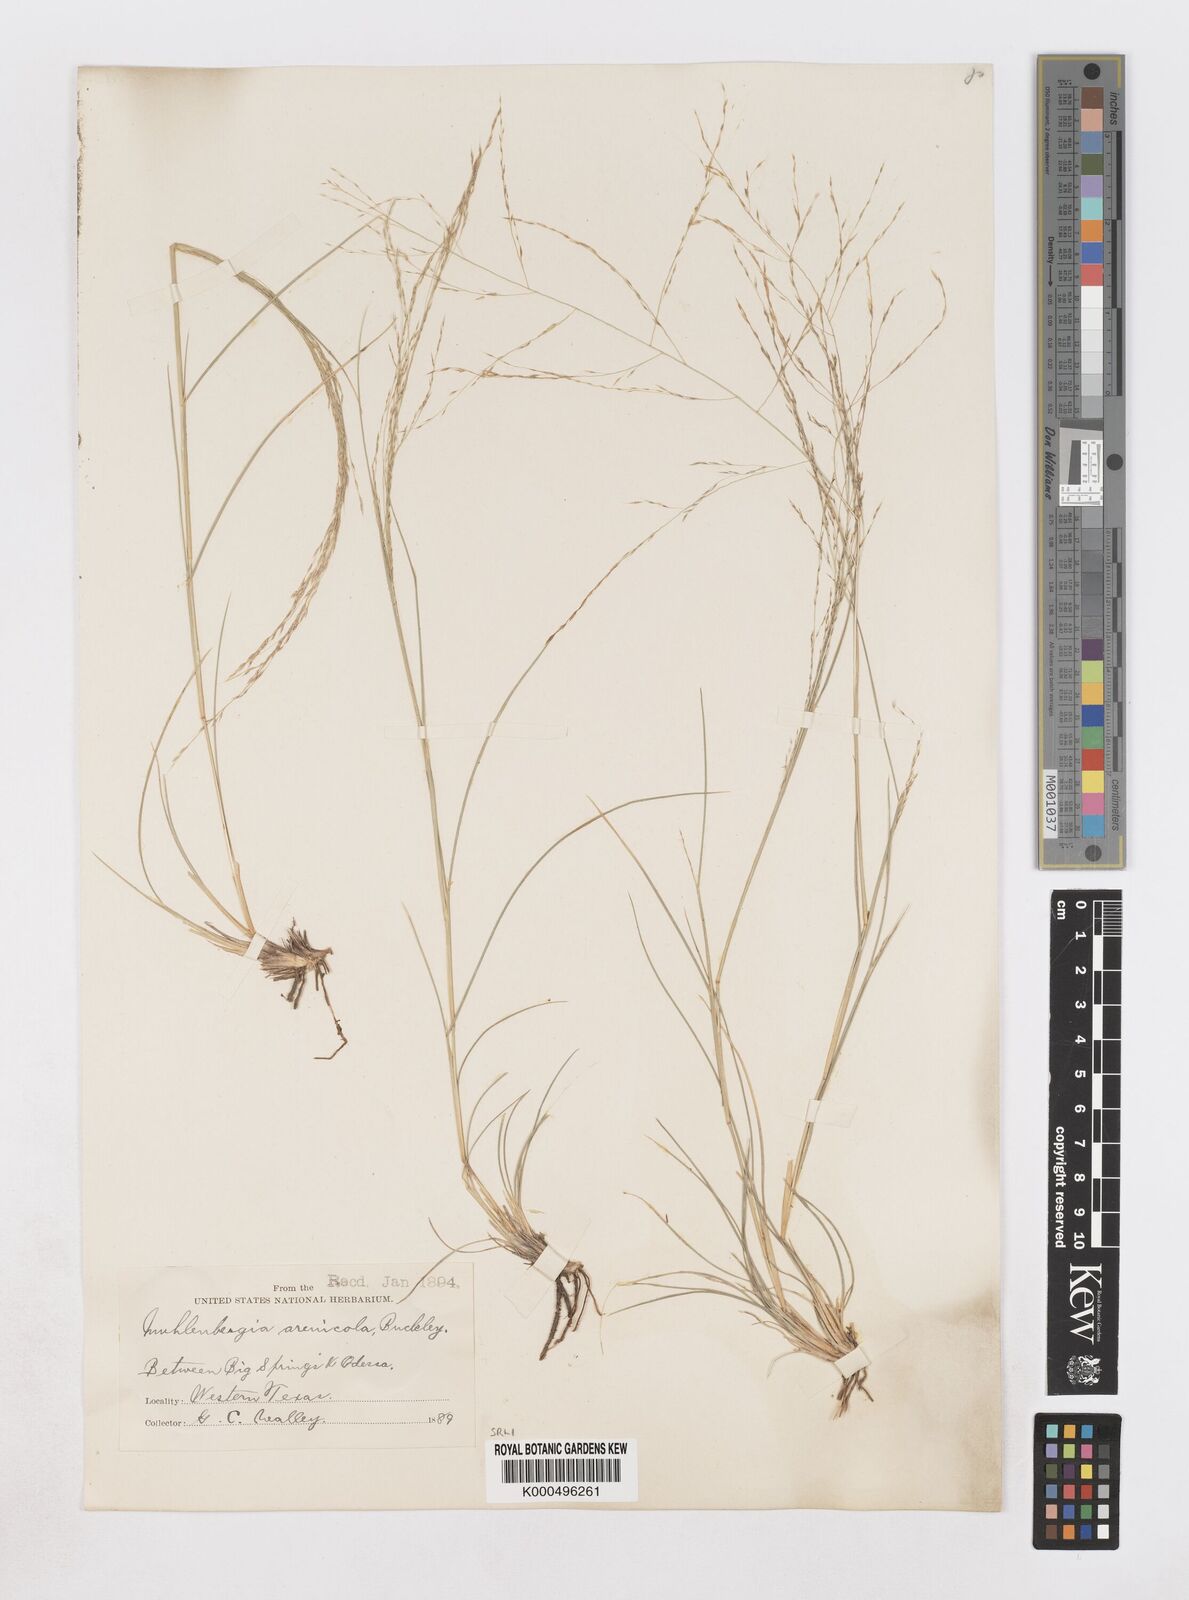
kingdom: Plantae
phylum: Tracheophyta
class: Liliopsida
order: Poales
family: Poaceae
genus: Muhlenbergia
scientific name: Muhlenbergia arenicola
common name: Sand muhly
